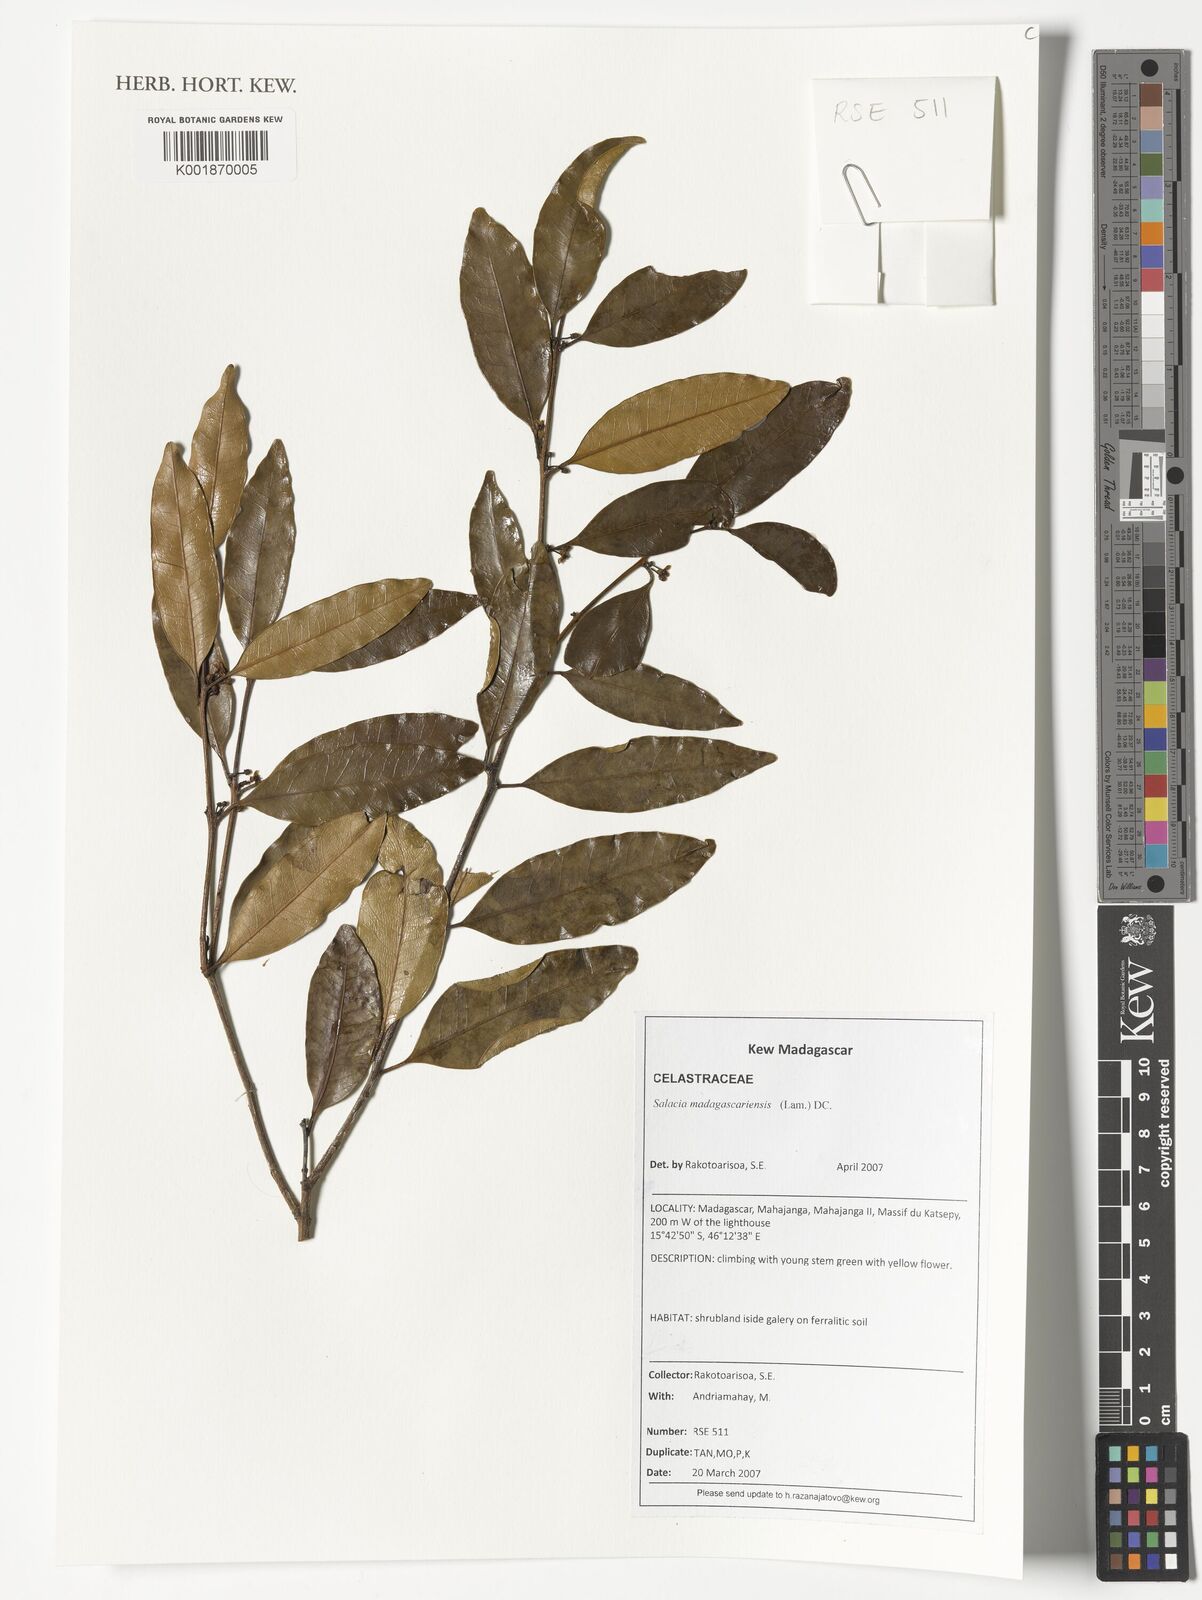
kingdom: Plantae
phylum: Tracheophyta
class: Magnoliopsida
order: Celastrales
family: Celastraceae
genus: Salacia
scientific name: Salacia madagascariensis
